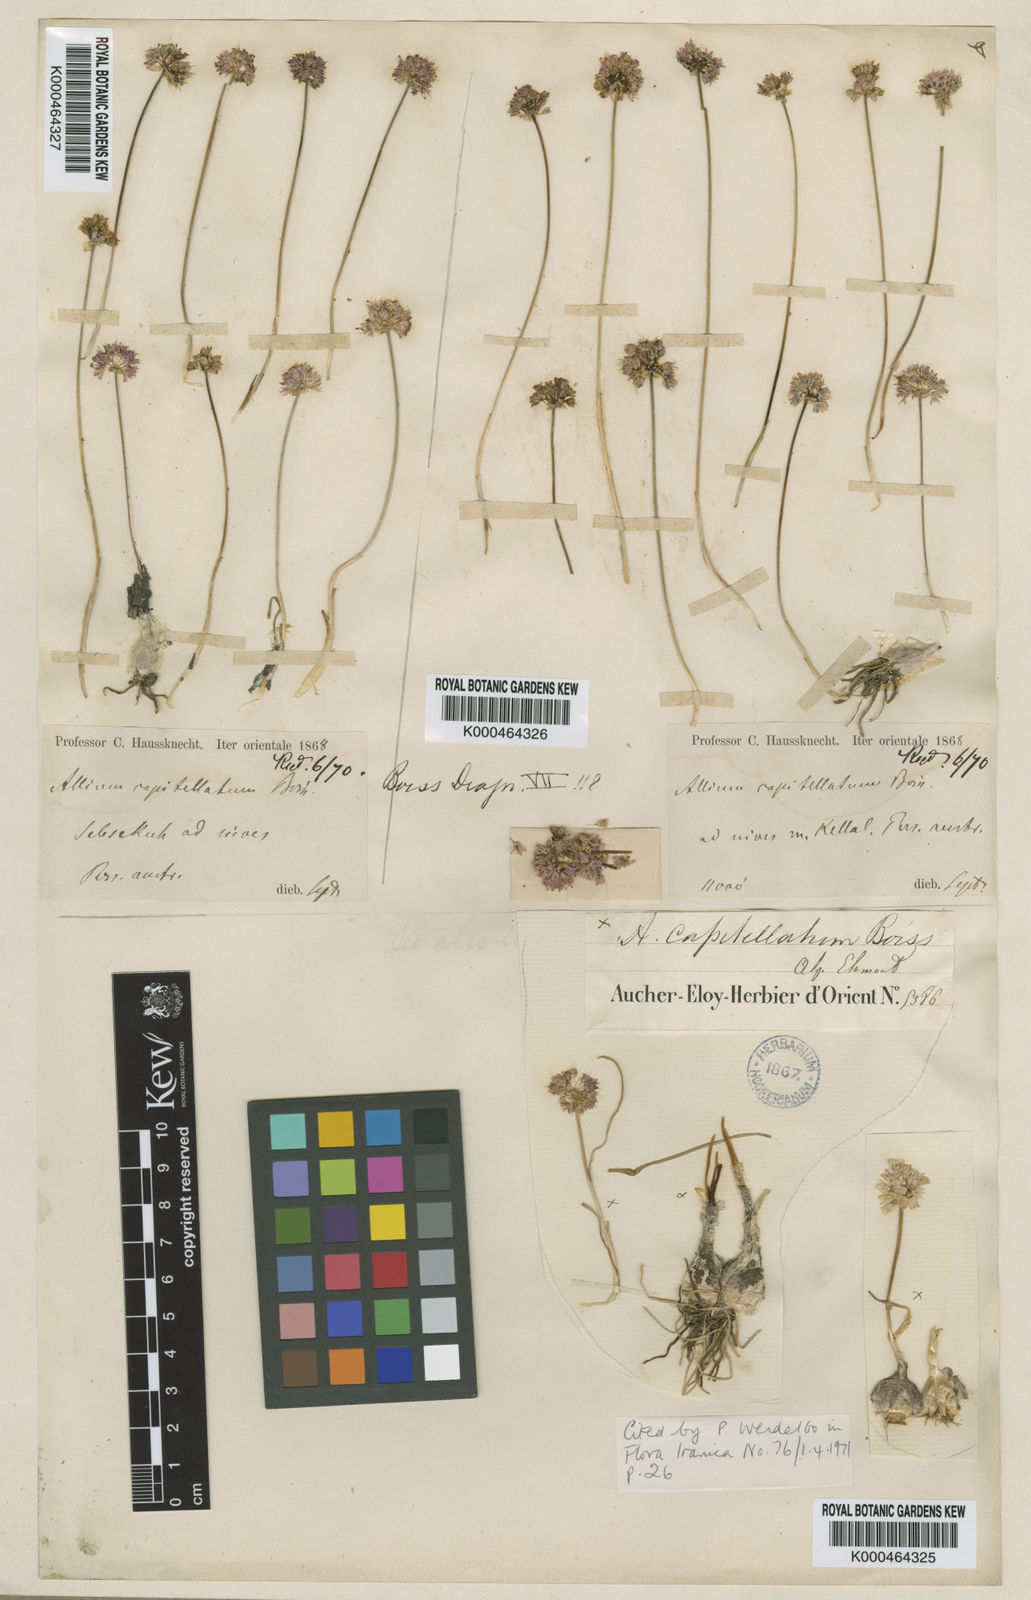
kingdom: Plantae
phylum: Tracheophyta
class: Liliopsida
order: Asparagales
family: Amaryllidaceae
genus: Allium
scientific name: Allium capitellatum
